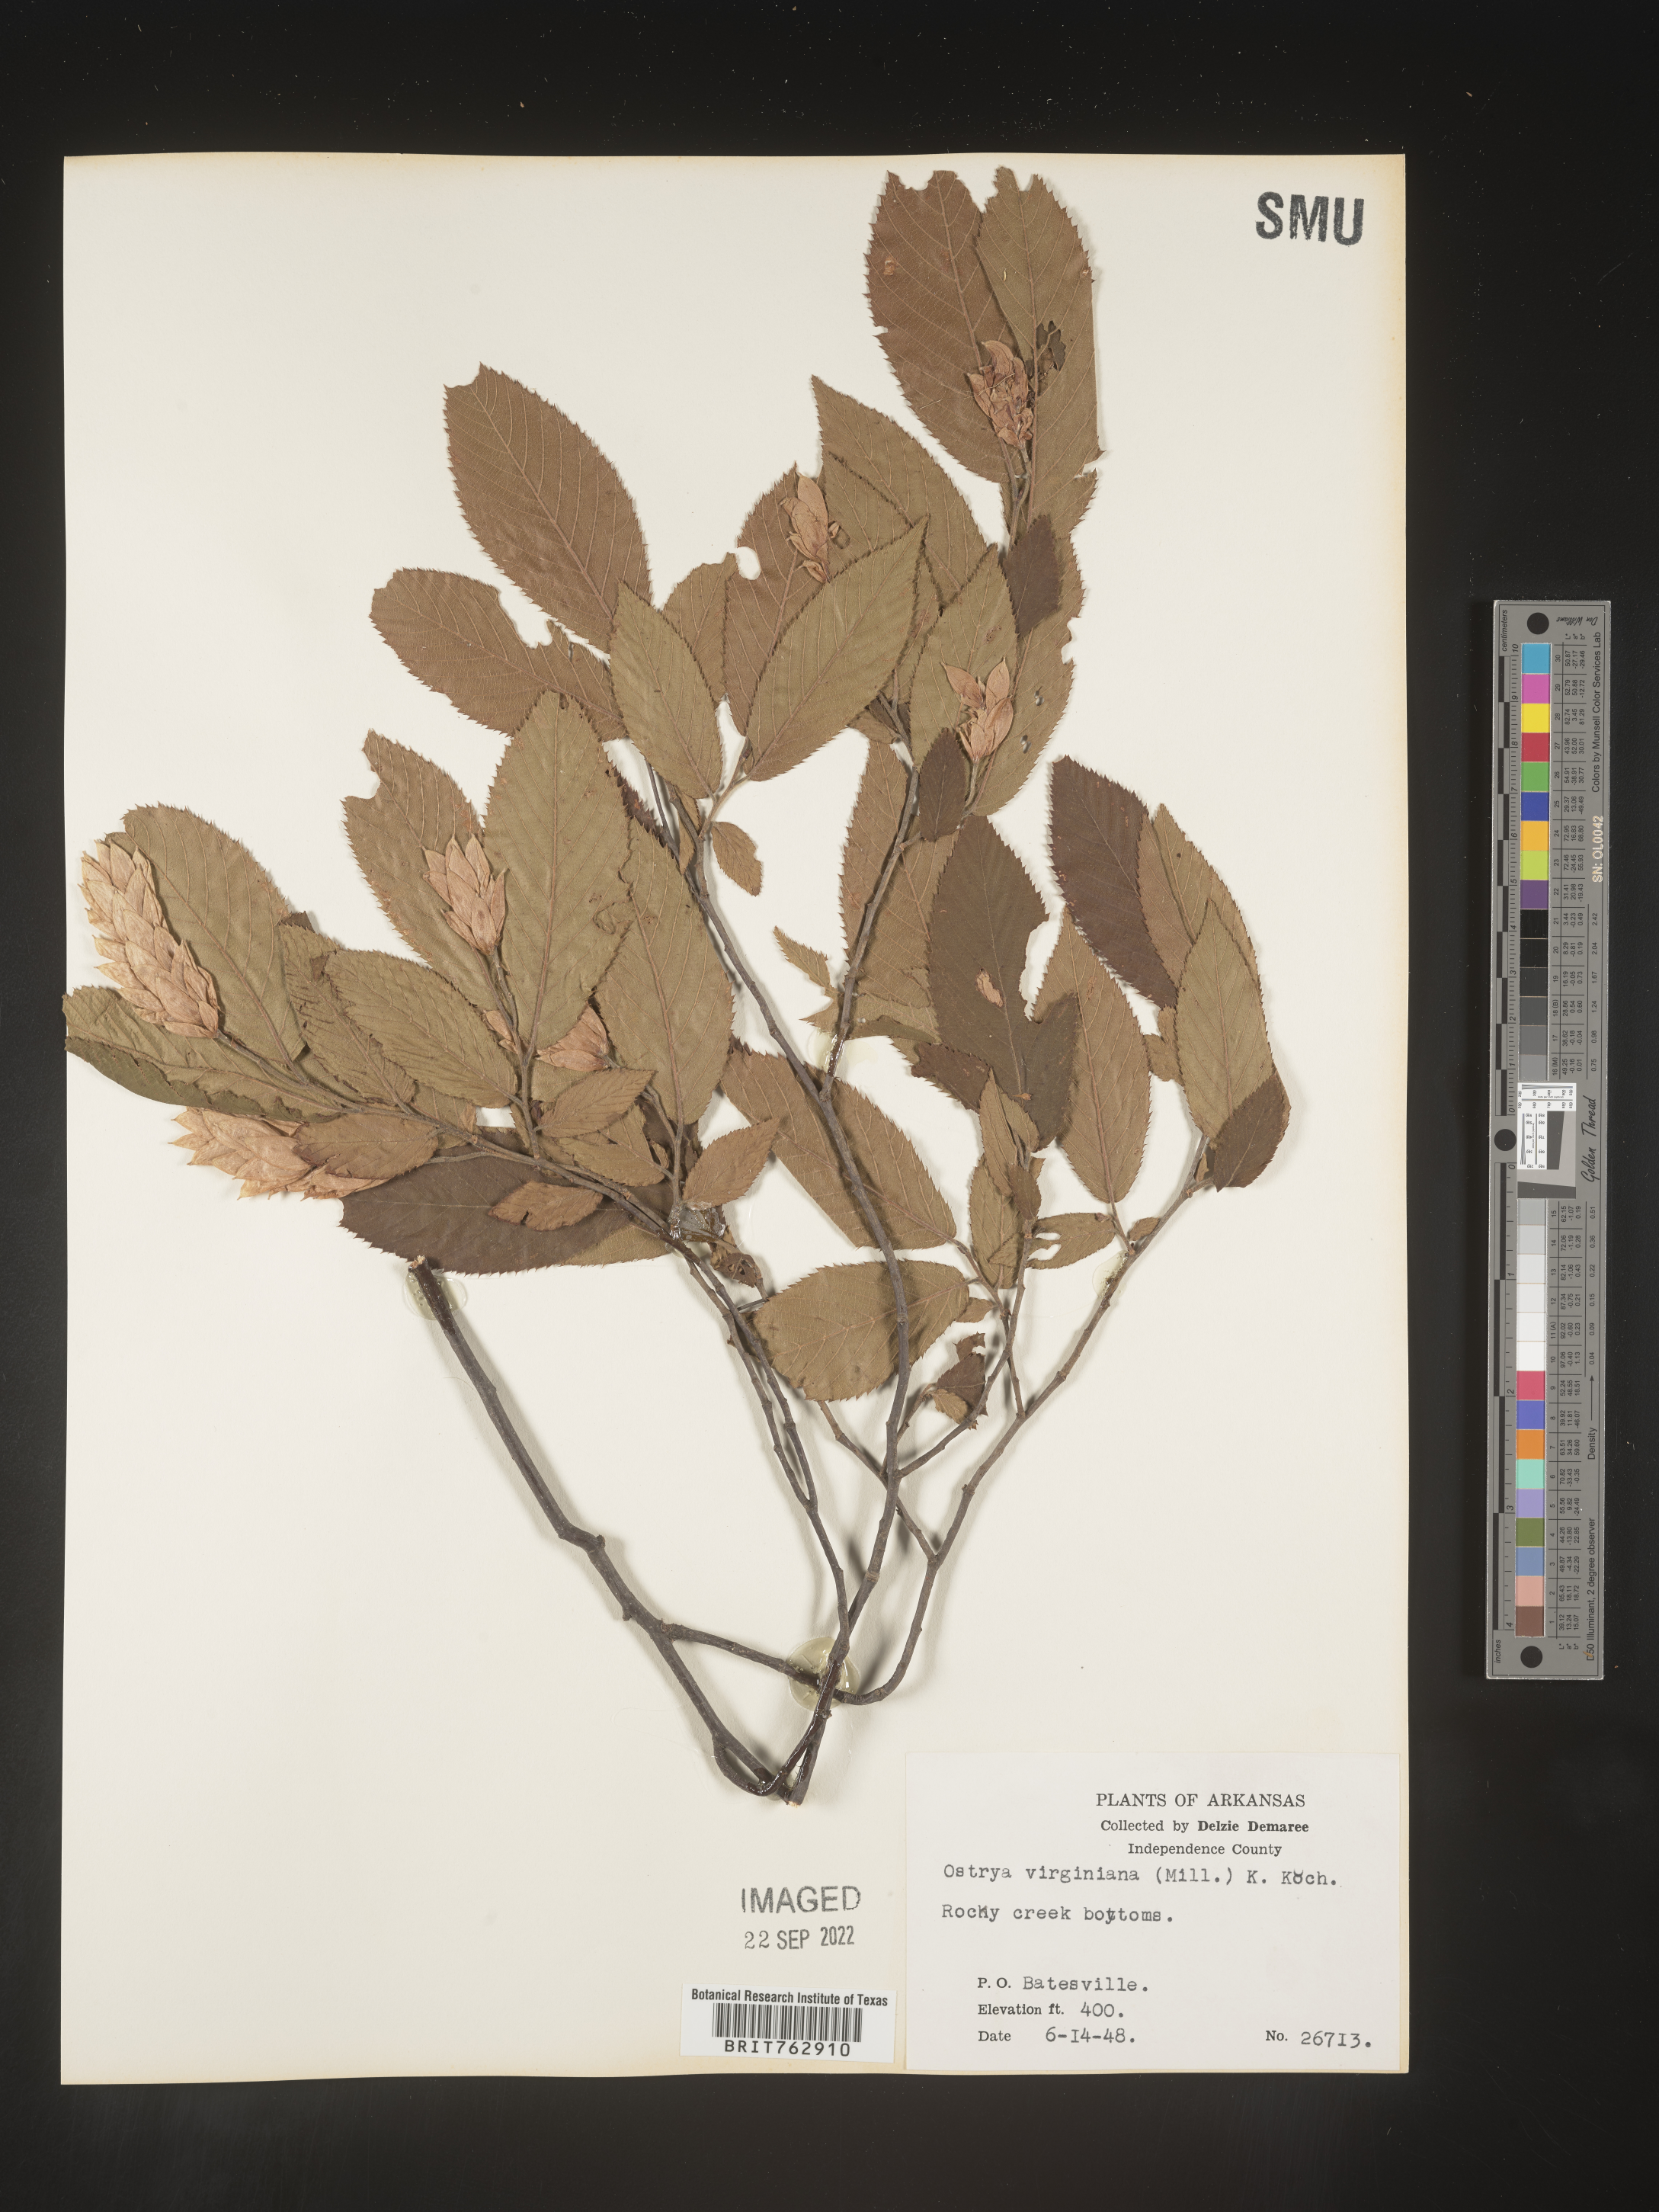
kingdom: Plantae
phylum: Tracheophyta
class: Magnoliopsida
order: Fagales
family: Betulaceae
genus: Ostrya
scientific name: Ostrya virginiana
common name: Ironwood
